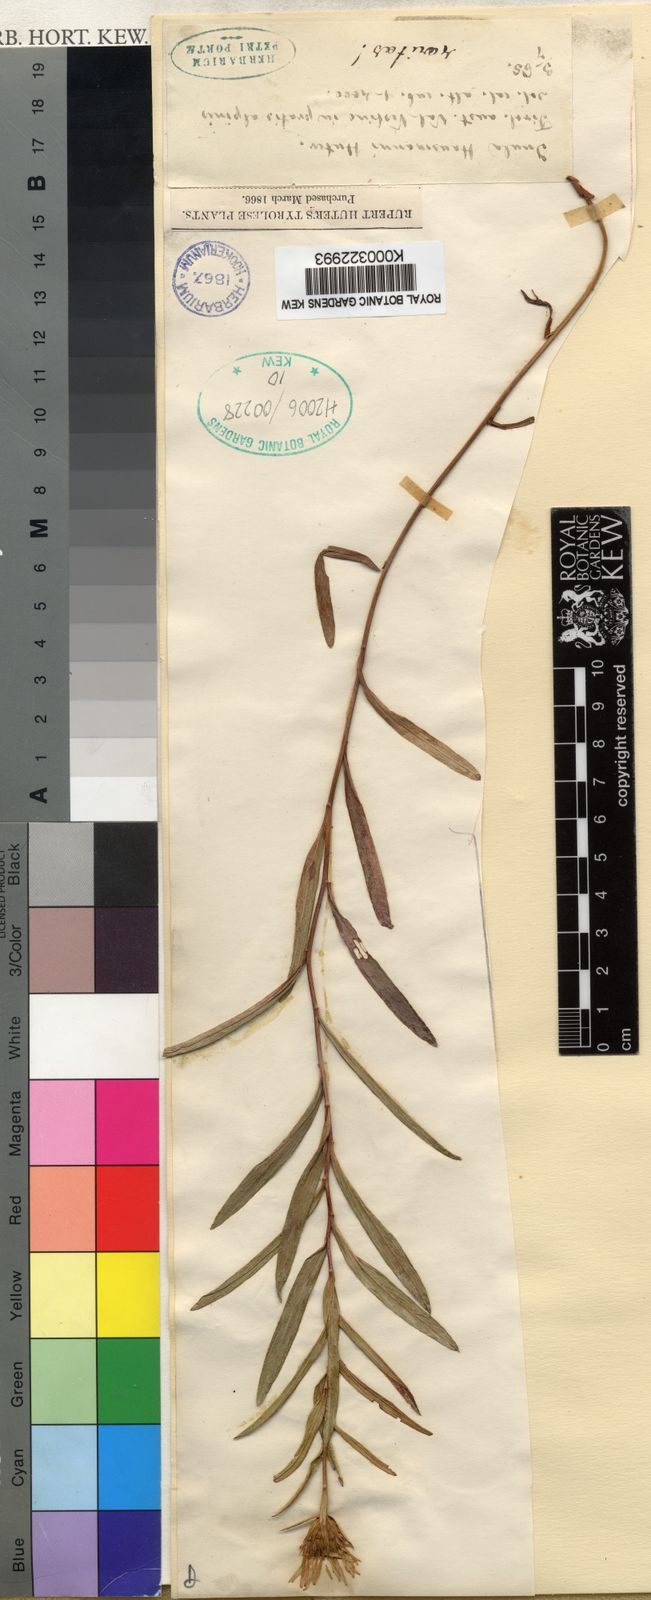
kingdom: Plantae
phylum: Tracheophyta
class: Magnoliopsida
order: Asterales
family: Asteraceae
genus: Pentanema
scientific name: Pentanema ensifolium
